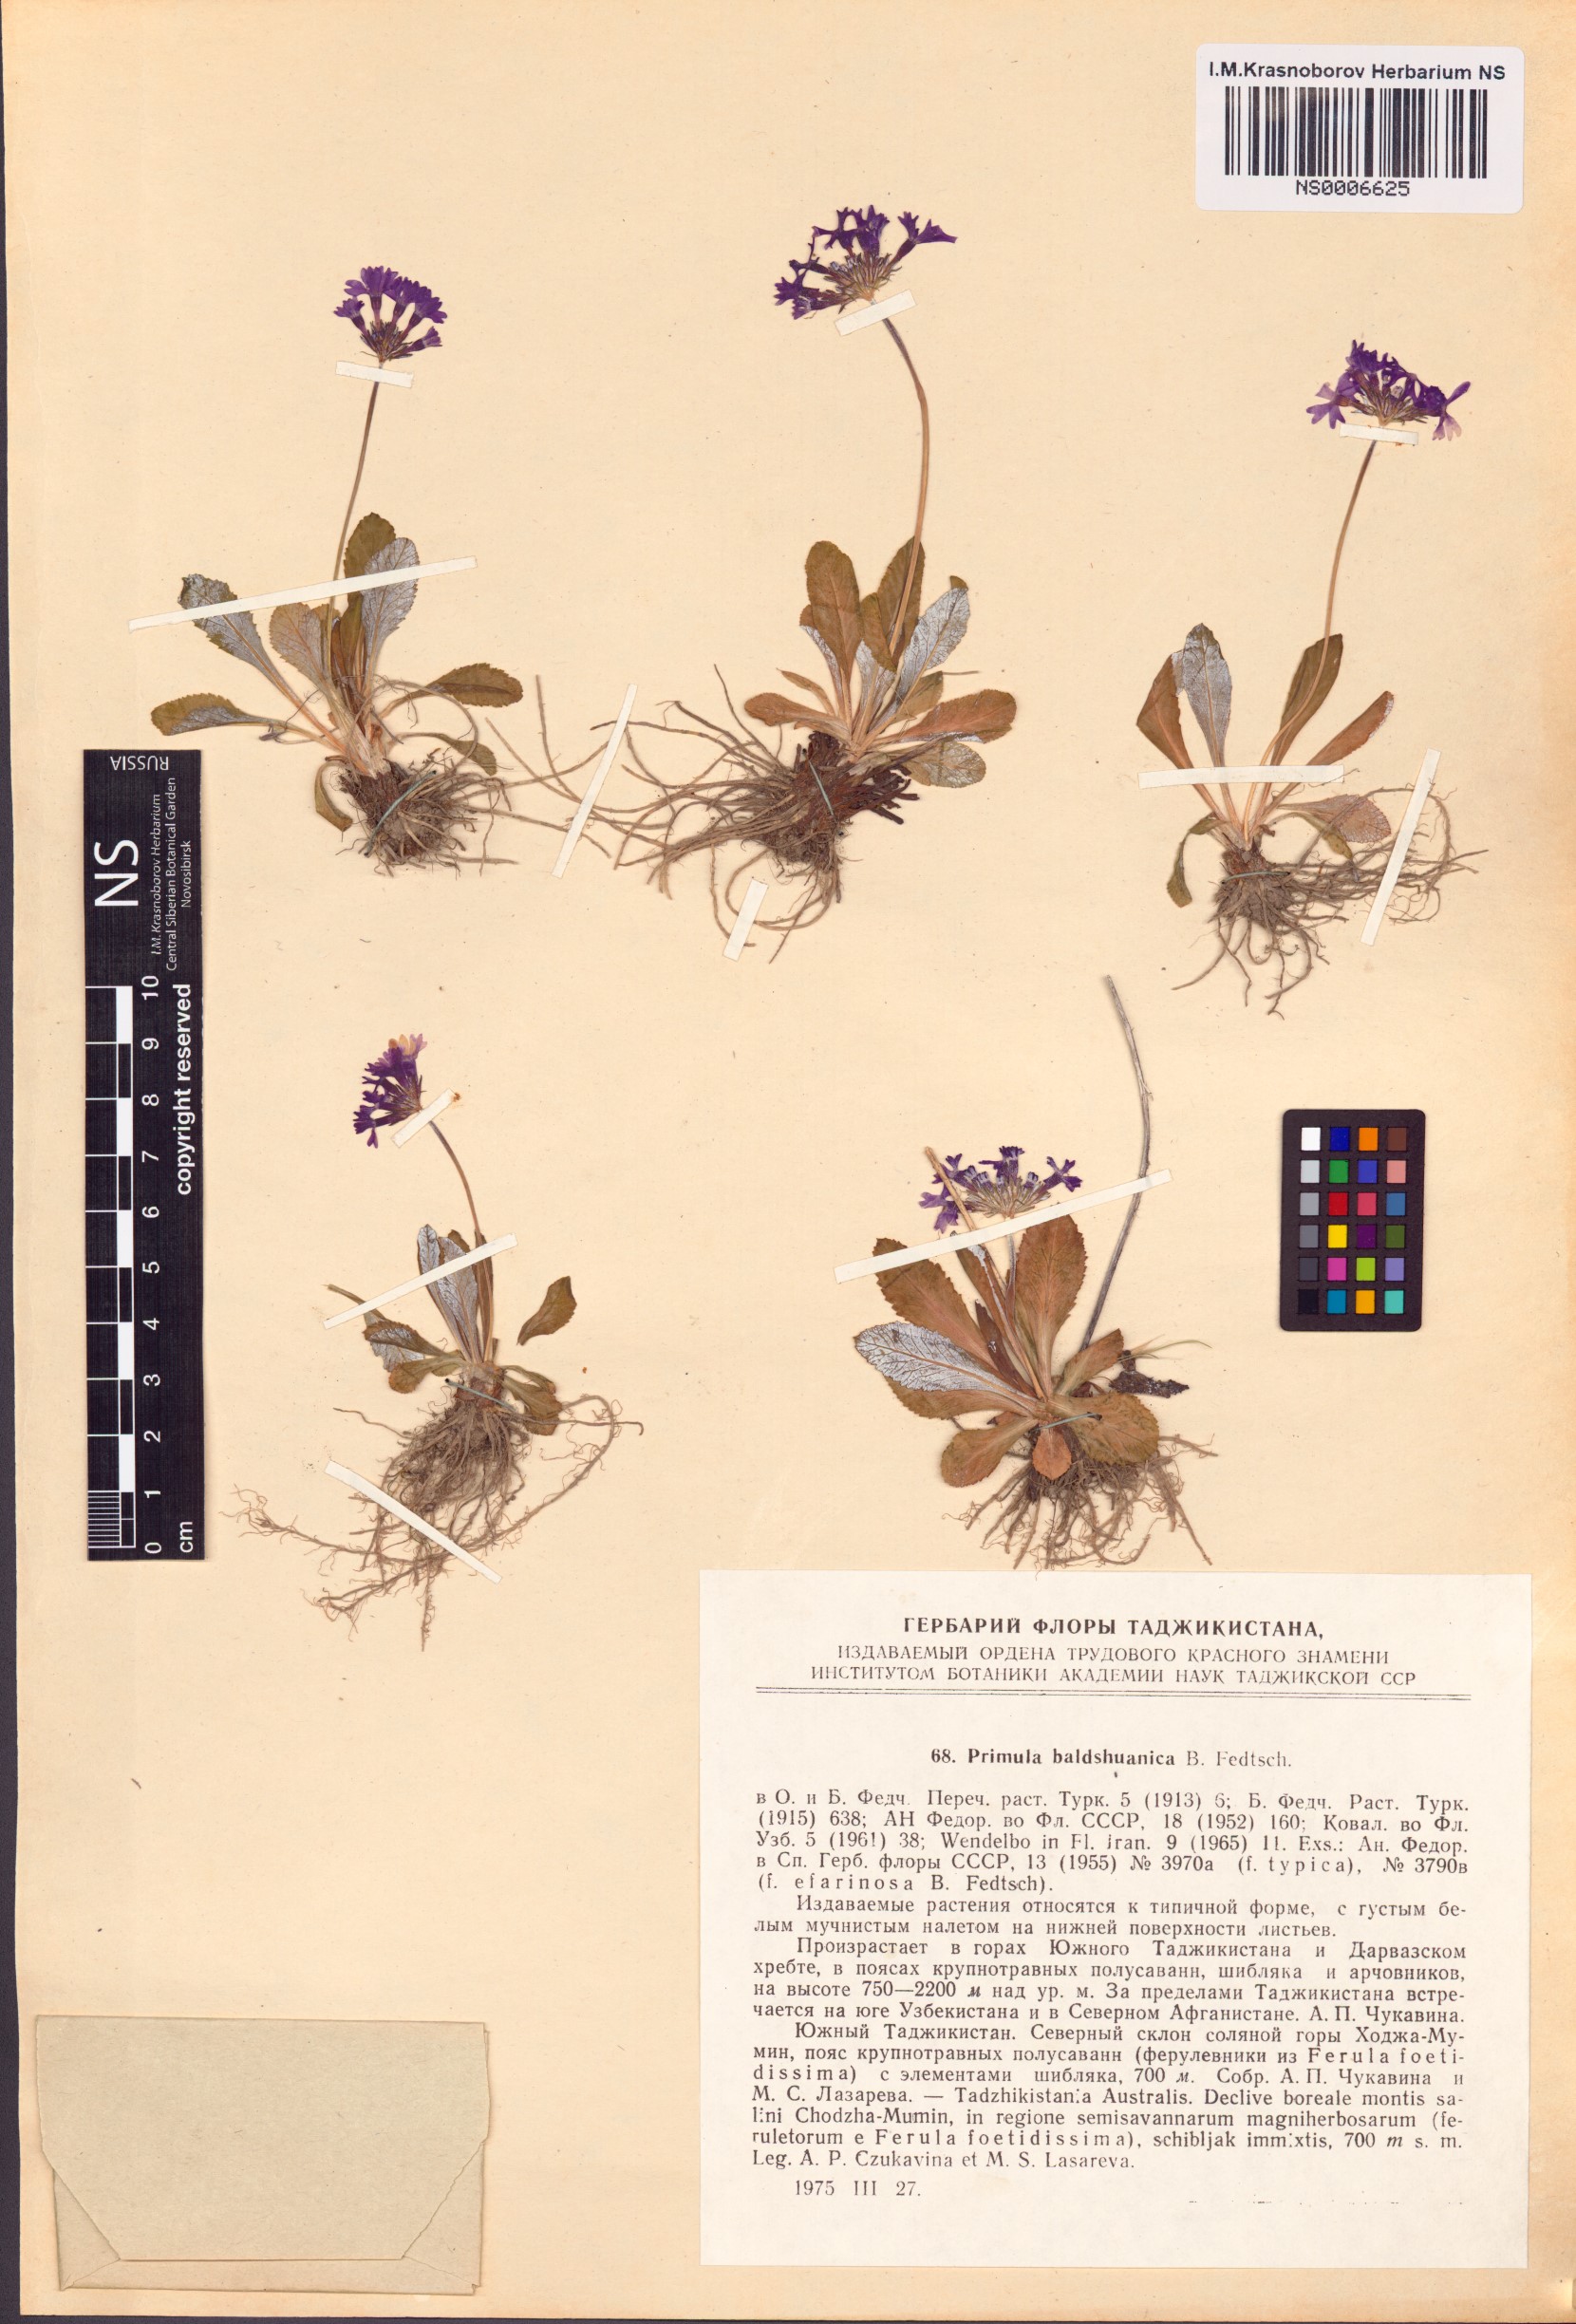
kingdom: Plantae
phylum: Tracheophyta
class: Magnoliopsida
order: Ericales
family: Primulaceae
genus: Primula
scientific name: Primula baldshuanica
